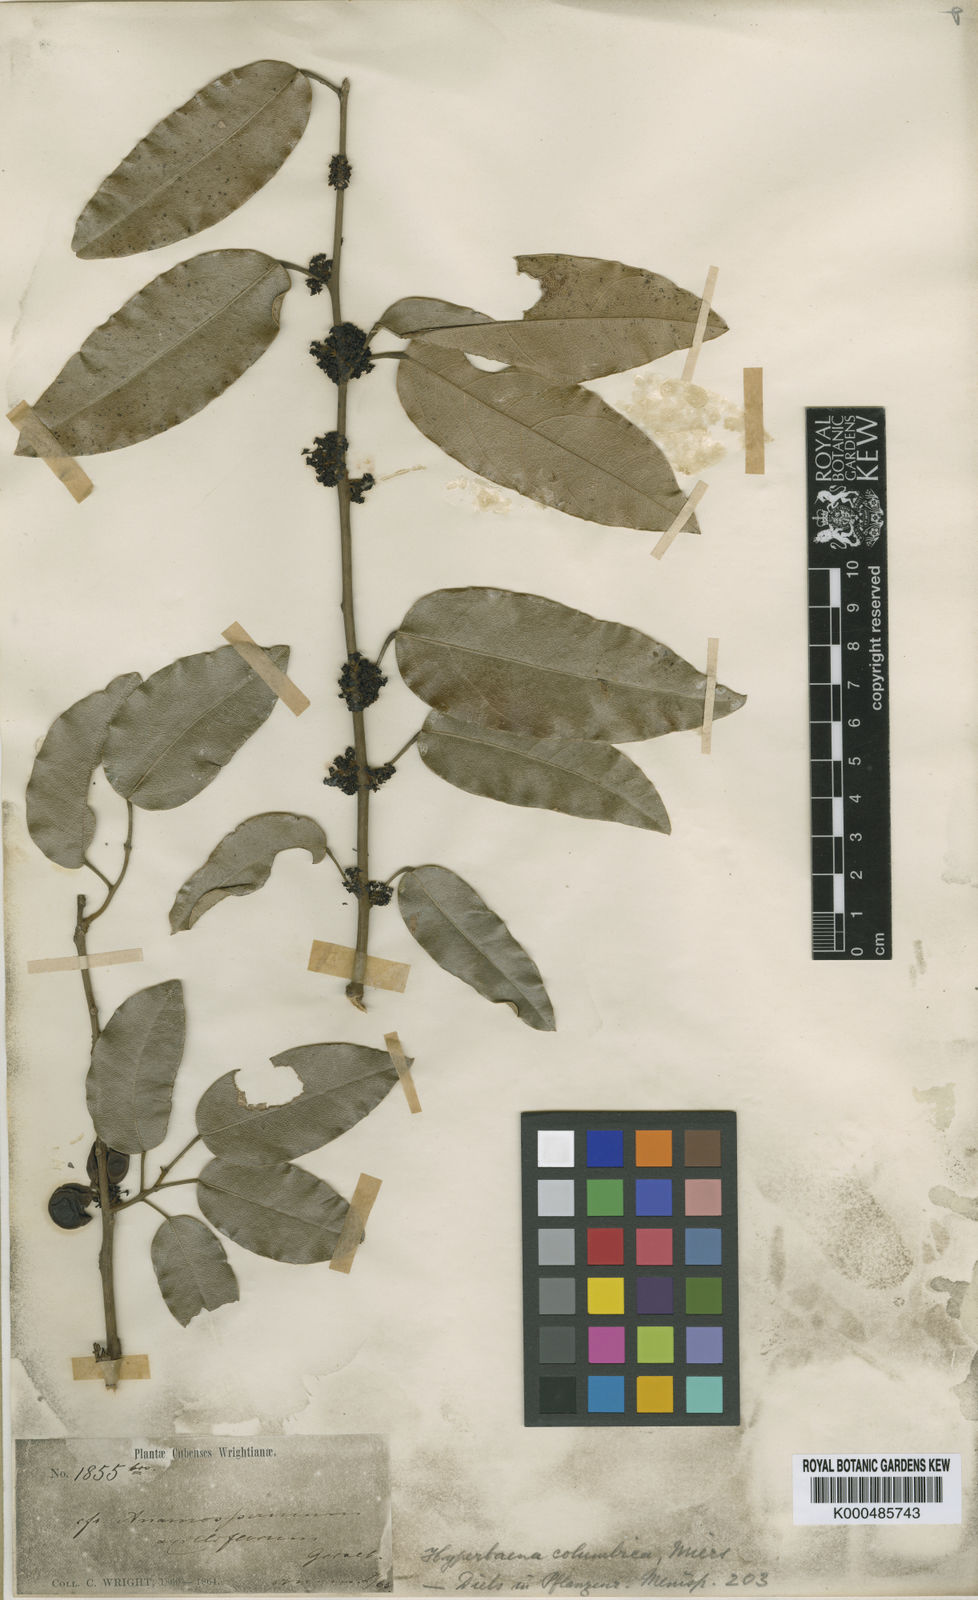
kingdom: Plantae
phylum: Tracheophyta
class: Magnoliopsida
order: Ranunculales
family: Menispermaceae
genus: Hyperbaena
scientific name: Hyperbaena columbica
